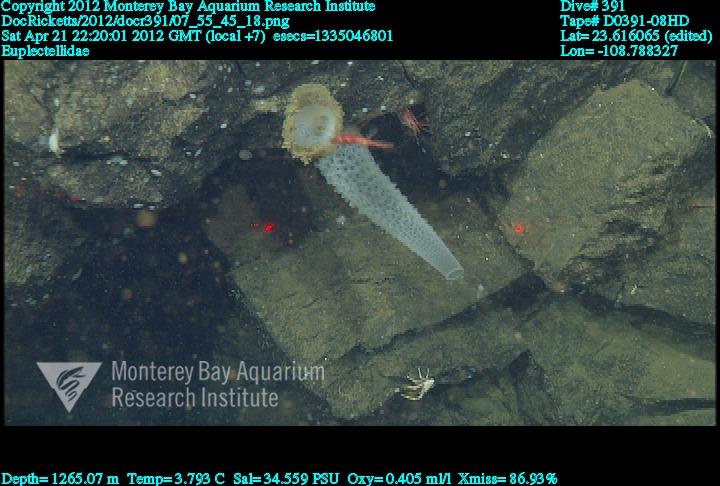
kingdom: Animalia
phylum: Porifera
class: Hexactinellida
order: Lyssacinosida
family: Euplectellidae
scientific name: Euplectellidae
